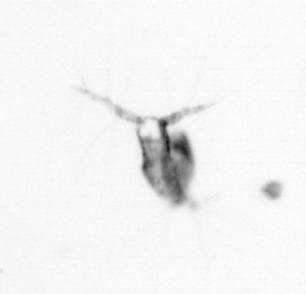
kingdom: Animalia
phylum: Arthropoda
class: Copepoda
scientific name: Copepoda
